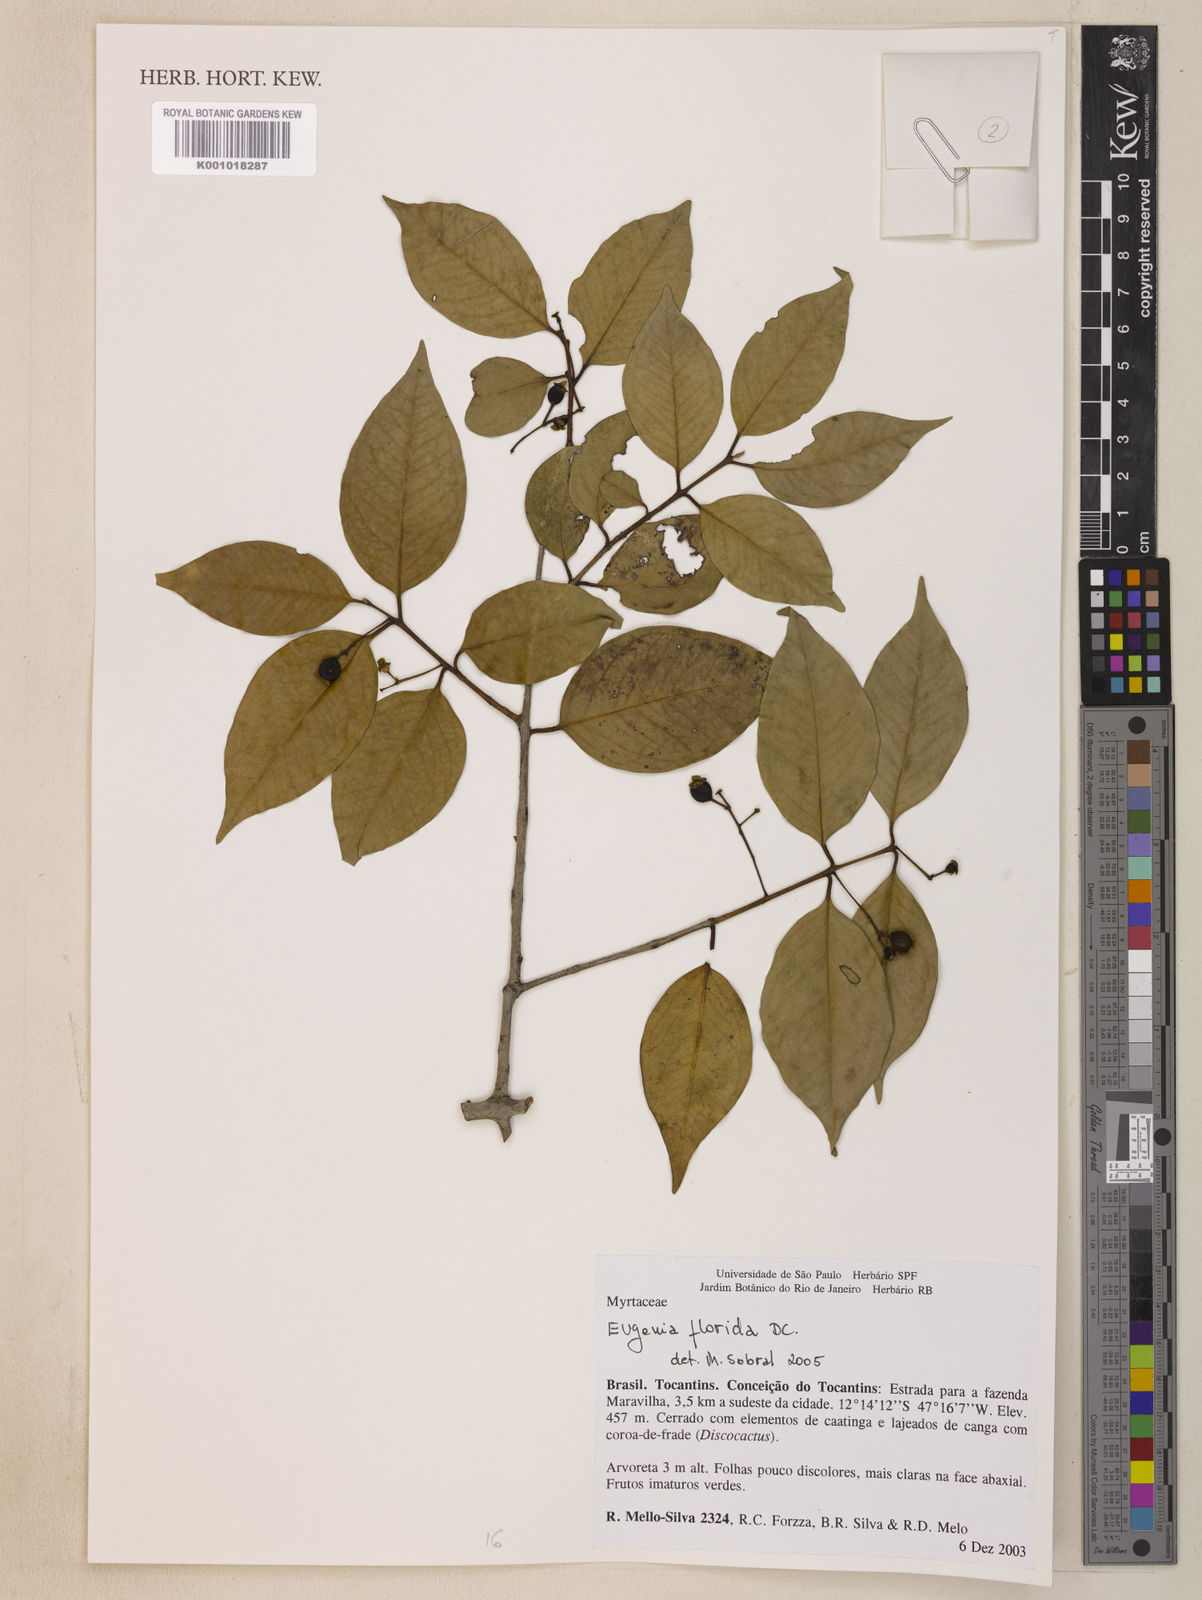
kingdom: Plantae
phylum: Tracheophyta
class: Magnoliopsida
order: Myrtales
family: Myrtaceae
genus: Eugenia
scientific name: Eugenia florida
